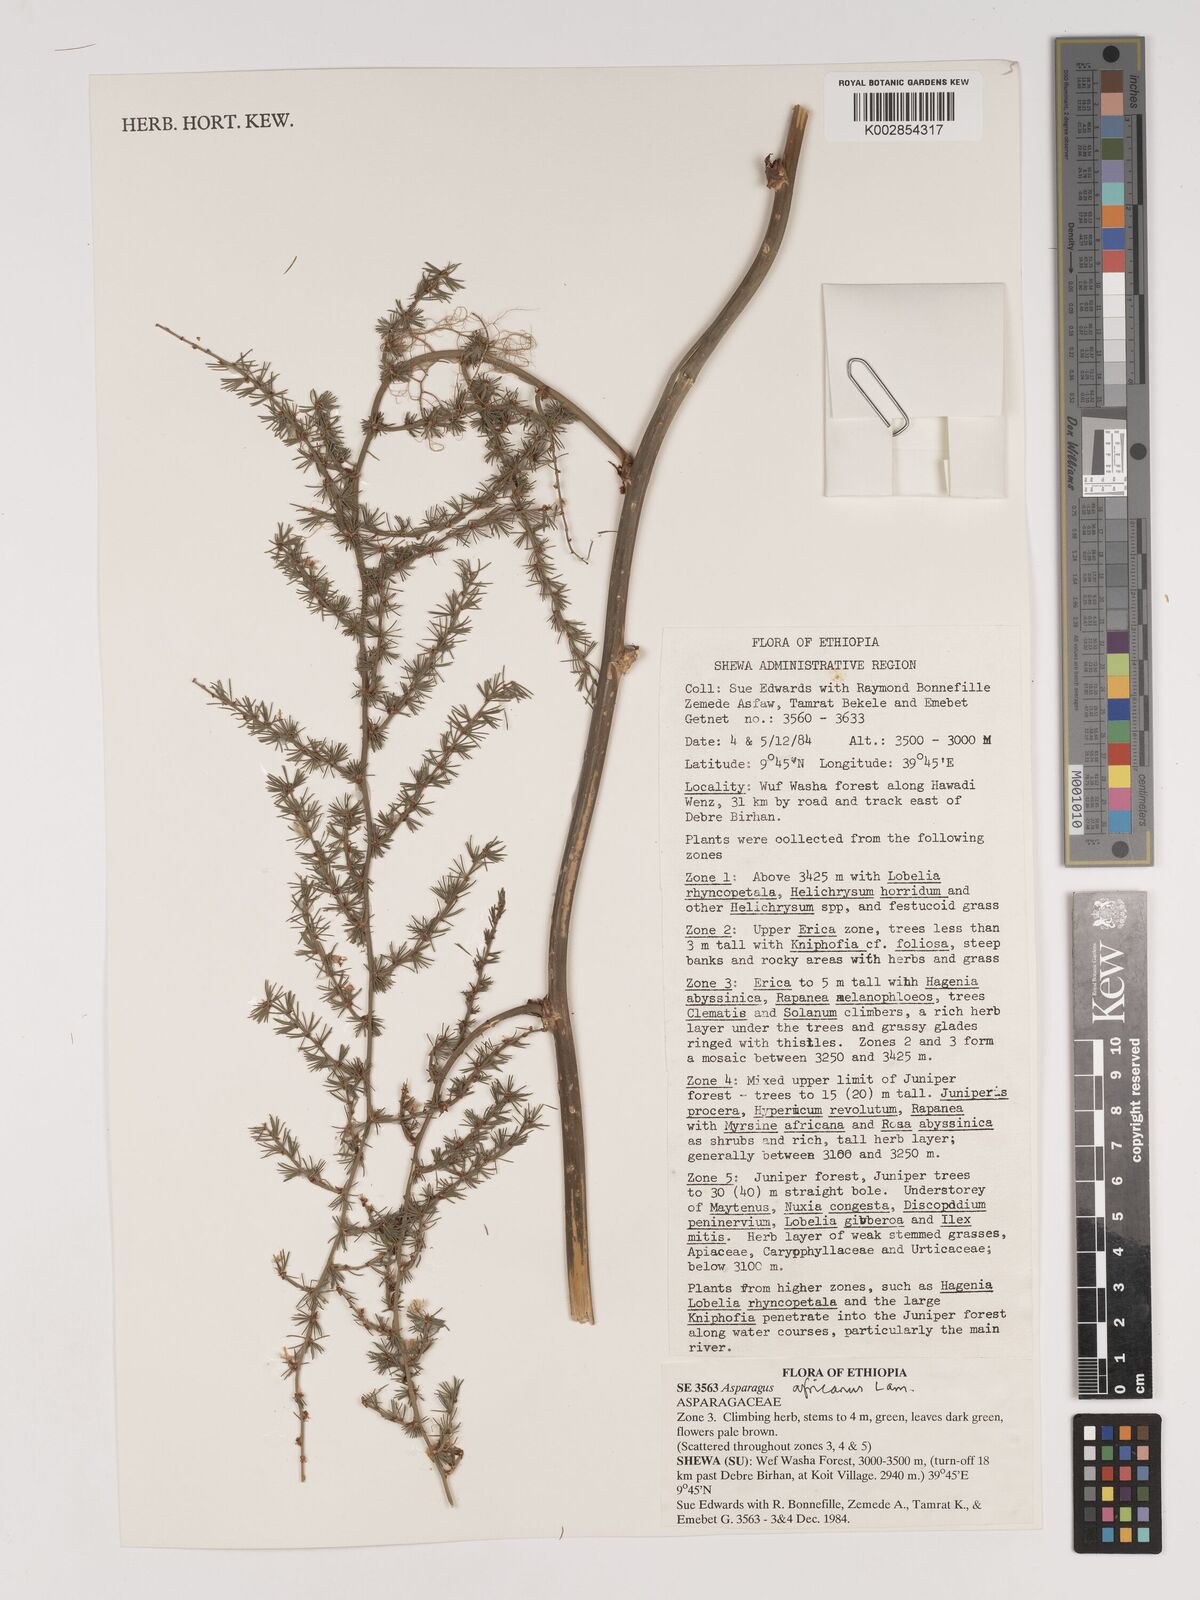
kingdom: Plantae
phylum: Tracheophyta
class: Liliopsida
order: Asparagales
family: Asparagaceae
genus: Asparagus
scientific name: Asparagus africanus
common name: Asparagus-fern
